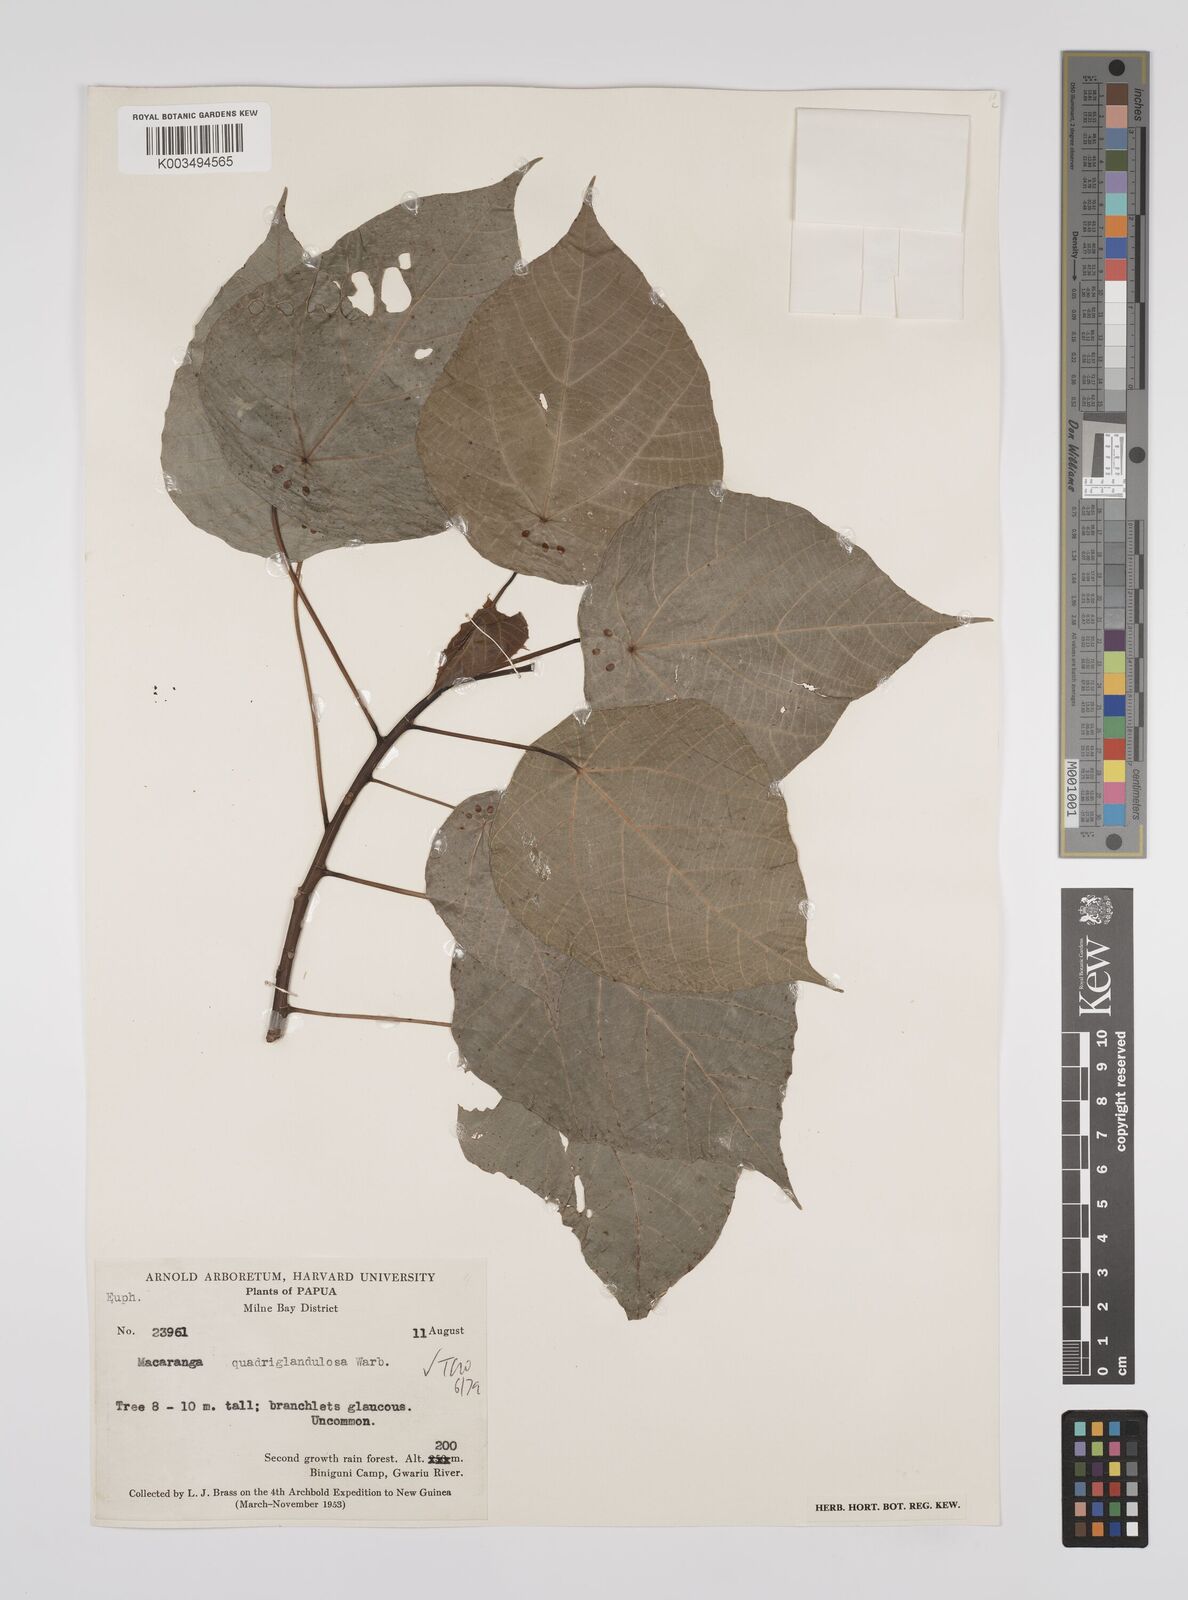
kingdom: Plantae
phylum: Tracheophyta
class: Magnoliopsida
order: Malpighiales
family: Euphorbiaceae
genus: Macaranga
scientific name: Macaranga quadriglandulosa
